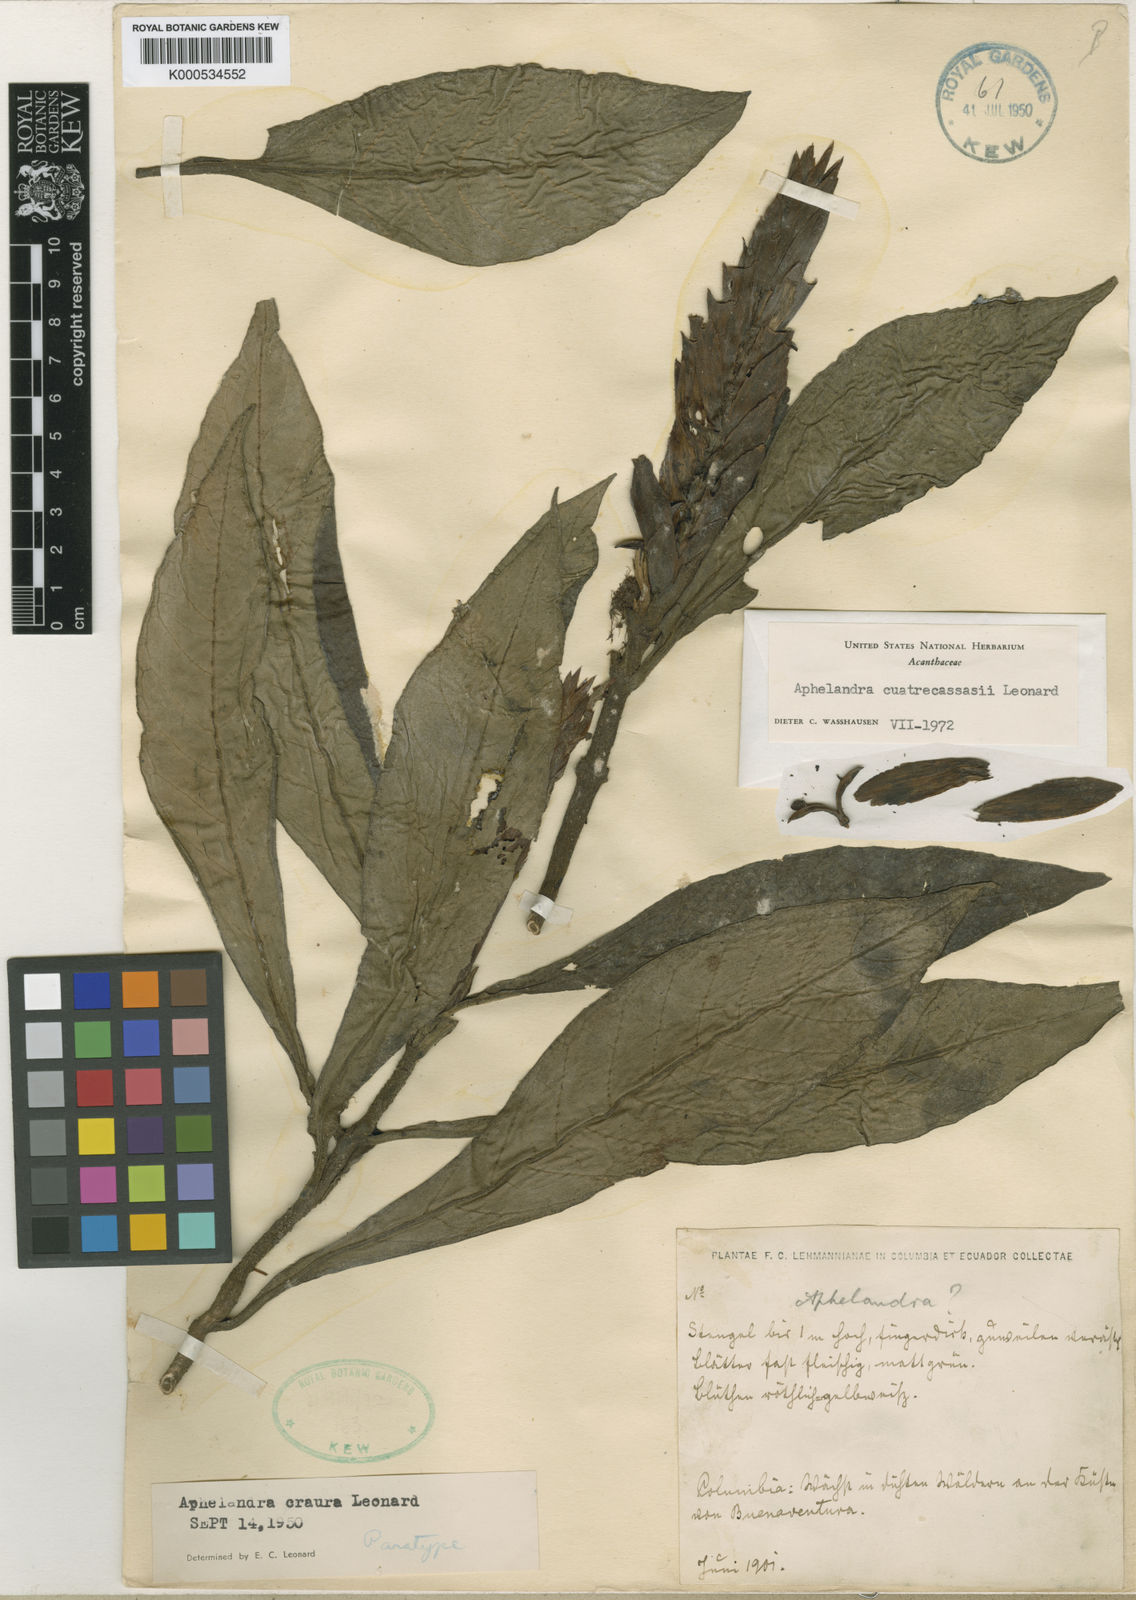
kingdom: Plantae
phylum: Tracheophyta
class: Magnoliopsida
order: Lamiales
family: Acanthaceae
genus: Aphelandra
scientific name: Aphelandra cuatrecasasii
